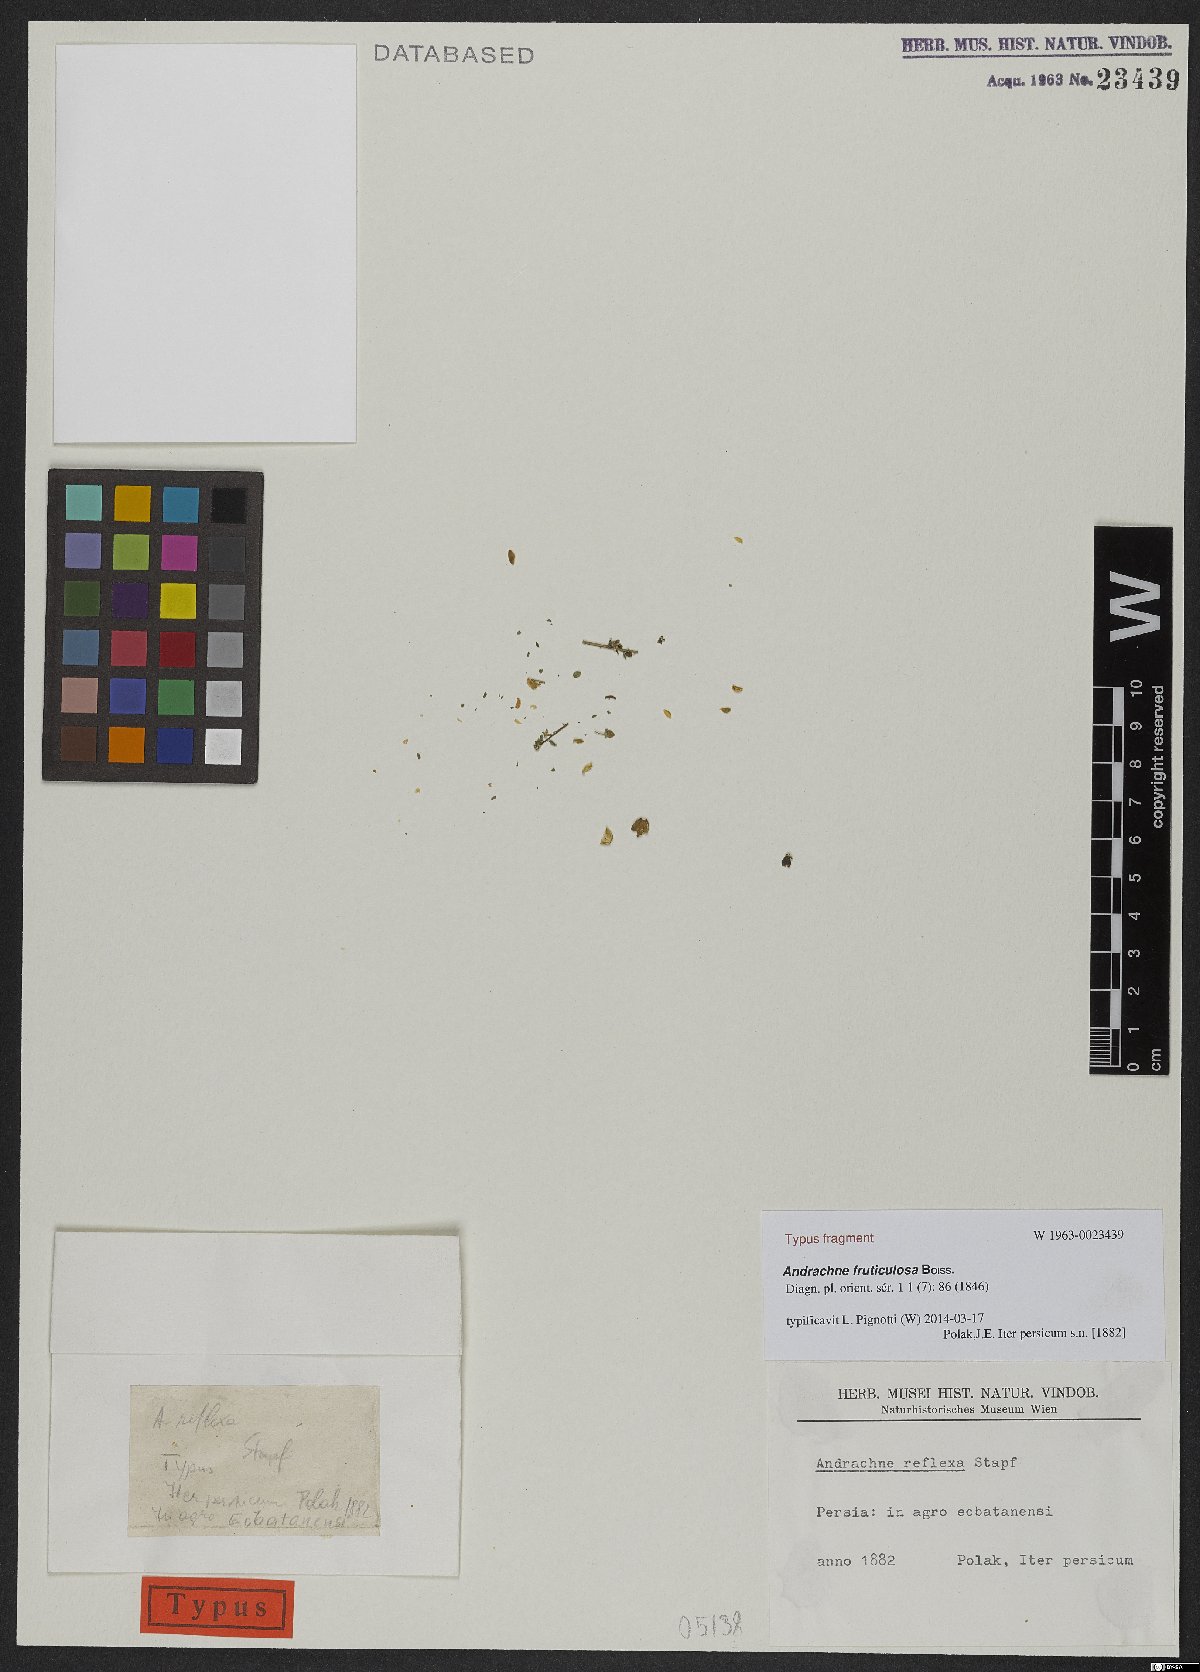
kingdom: Plantae
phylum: Tracheophyta
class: Magnoliopsida
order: Malpighiales
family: Phyllanthaceae
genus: Andrachne
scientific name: Andrachne fruticulosa
